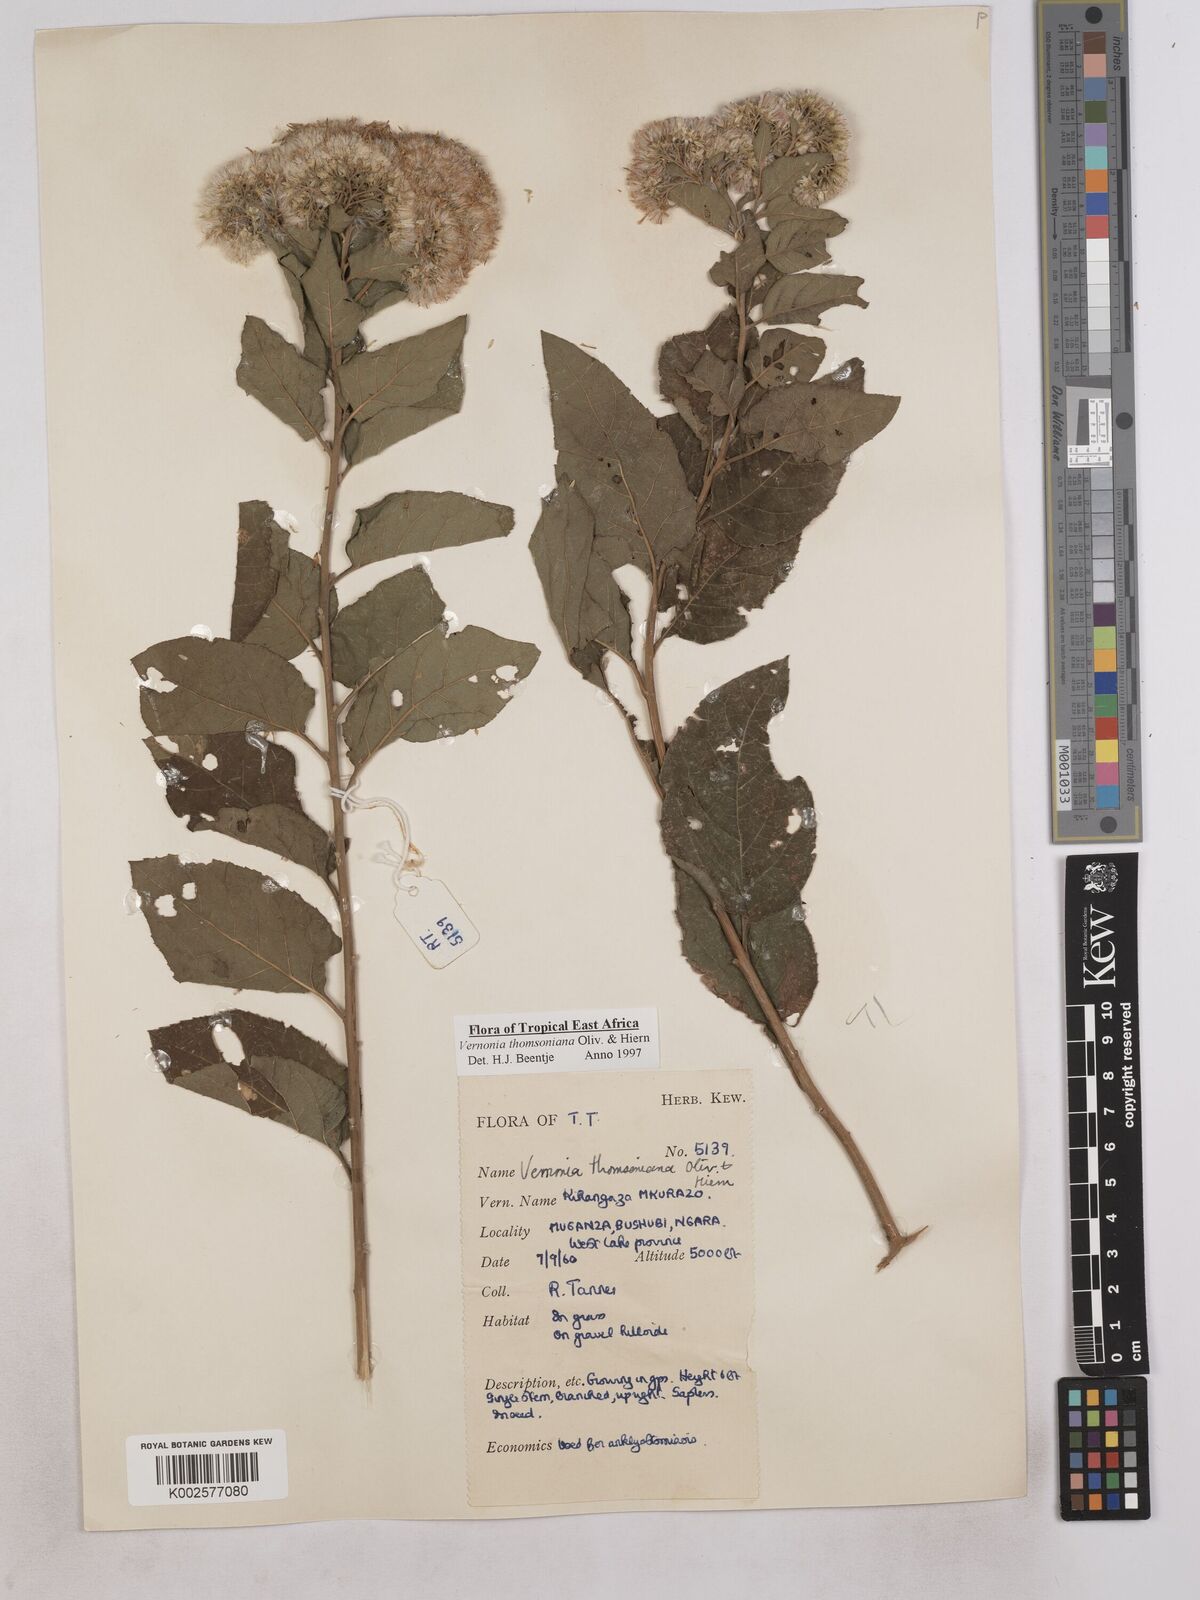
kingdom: Plantae
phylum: Tracheophyta
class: Magnoliopsida
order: Asterales
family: Asteraceae
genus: Gymnanthemum
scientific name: Gymnanthemum thomsonianum
